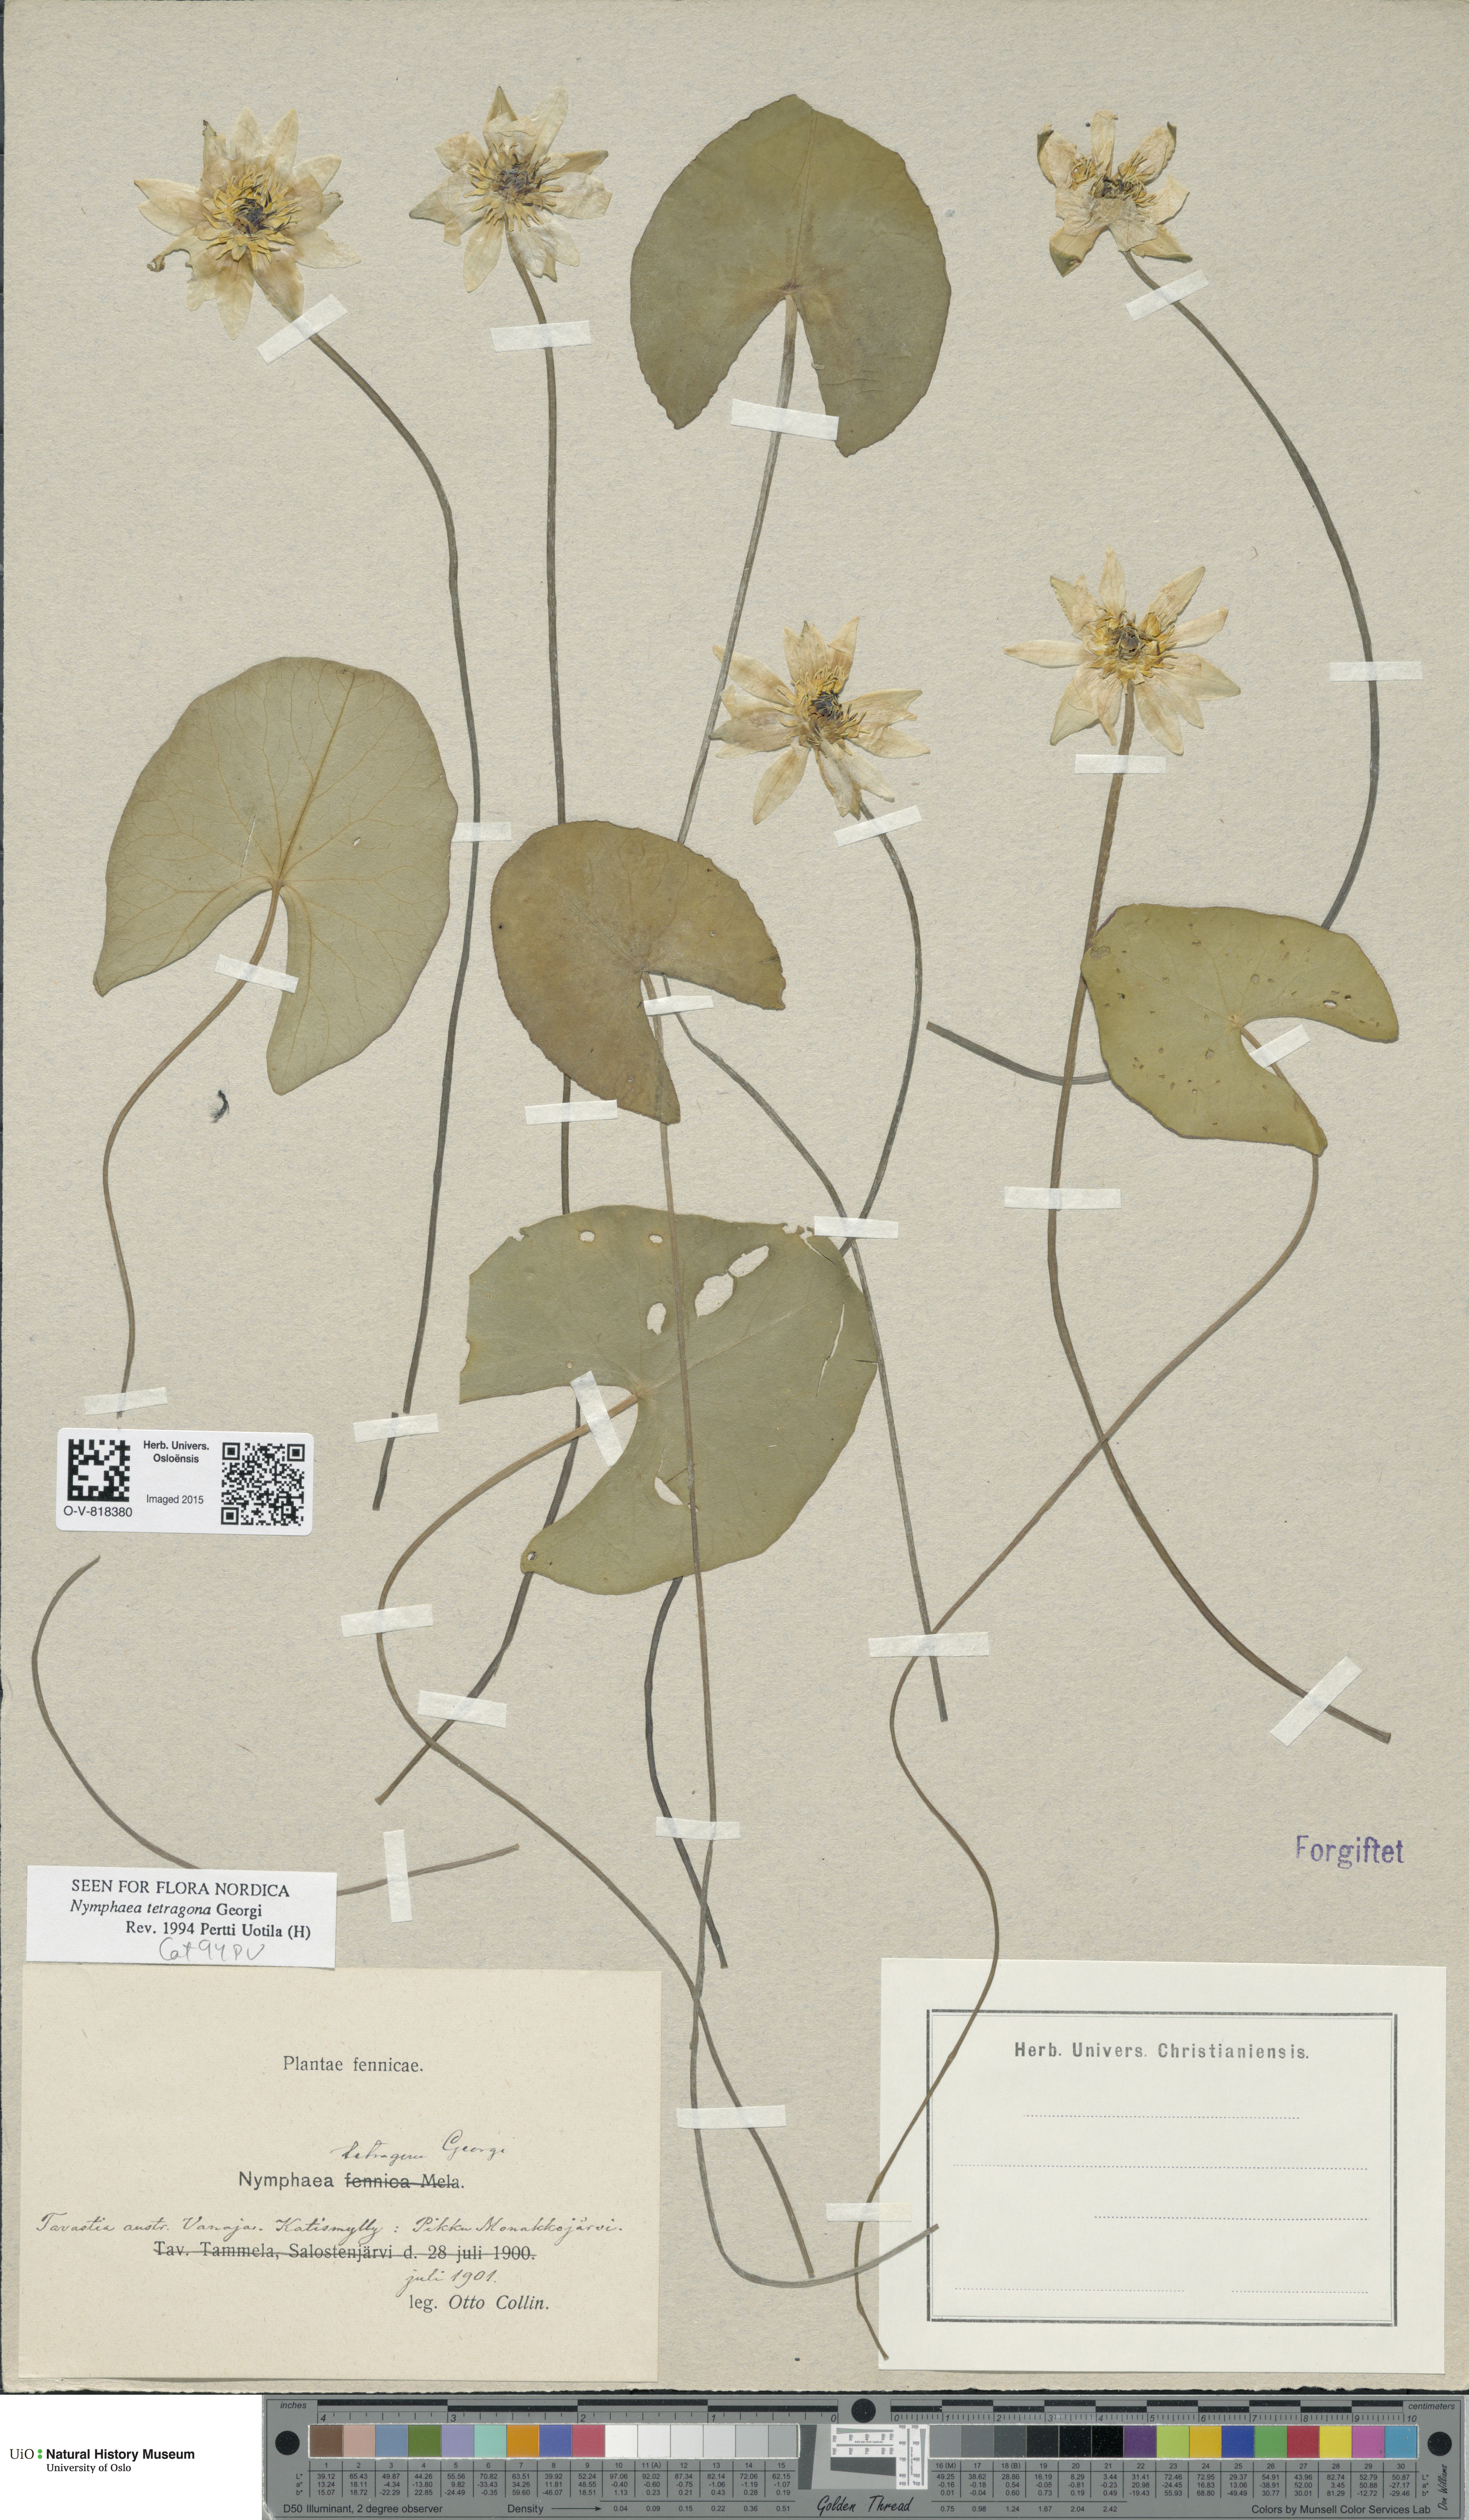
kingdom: Plantae
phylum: Tracheophyta
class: Magnoliopsida
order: Nymphaeales
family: Nymphaeaceae
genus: Nymphaea
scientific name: Nymphaea tetragona
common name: Pygmy water-lily
